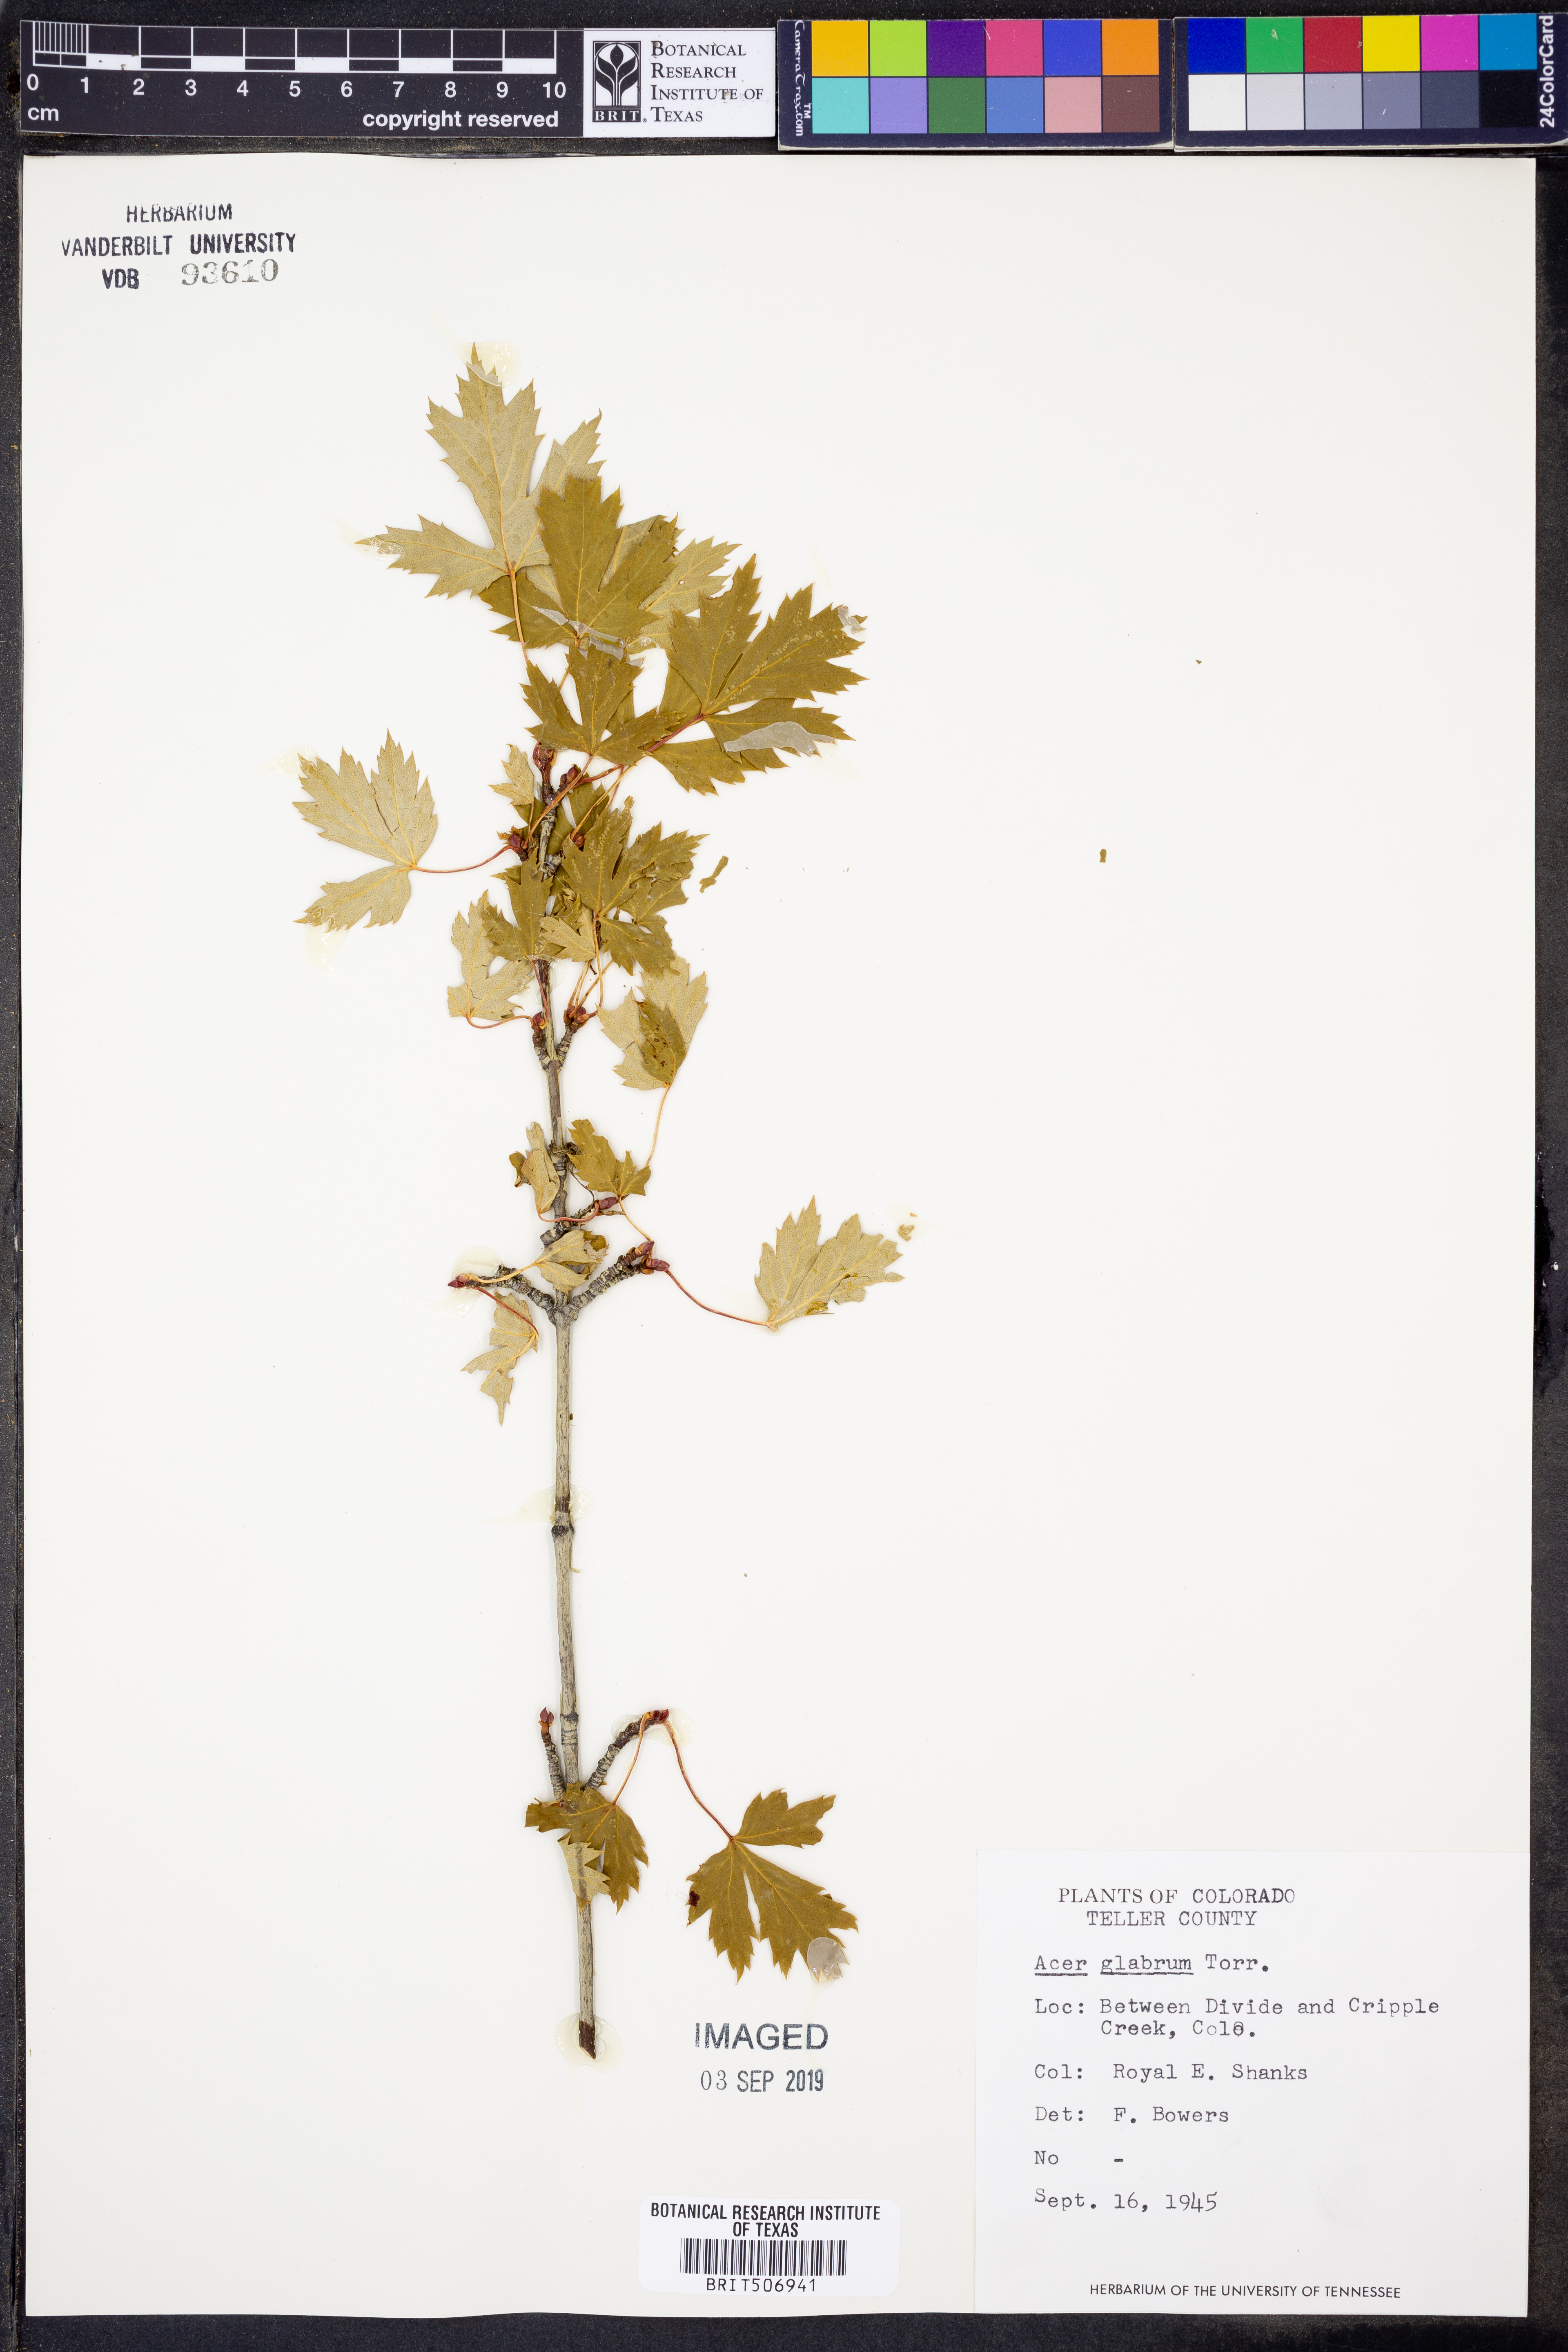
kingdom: Plantae
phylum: Tracheophyta
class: Magnoliopsida
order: Sapindales
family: Sapindaceae
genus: Acer
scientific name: Acer glabrum
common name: Rocky mountain maple
